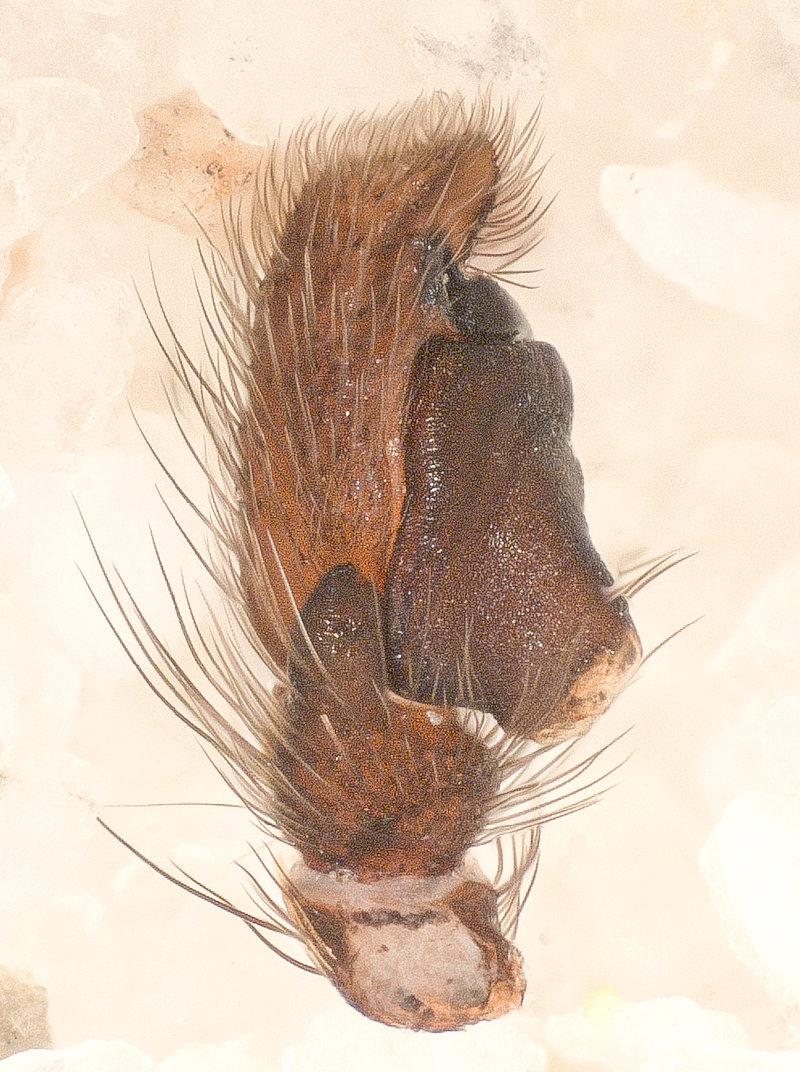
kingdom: Animalia
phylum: Arthropoda
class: Arachnida
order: Araneae
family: Salticidae
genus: Evarcha
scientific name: Evarcha arcuata
